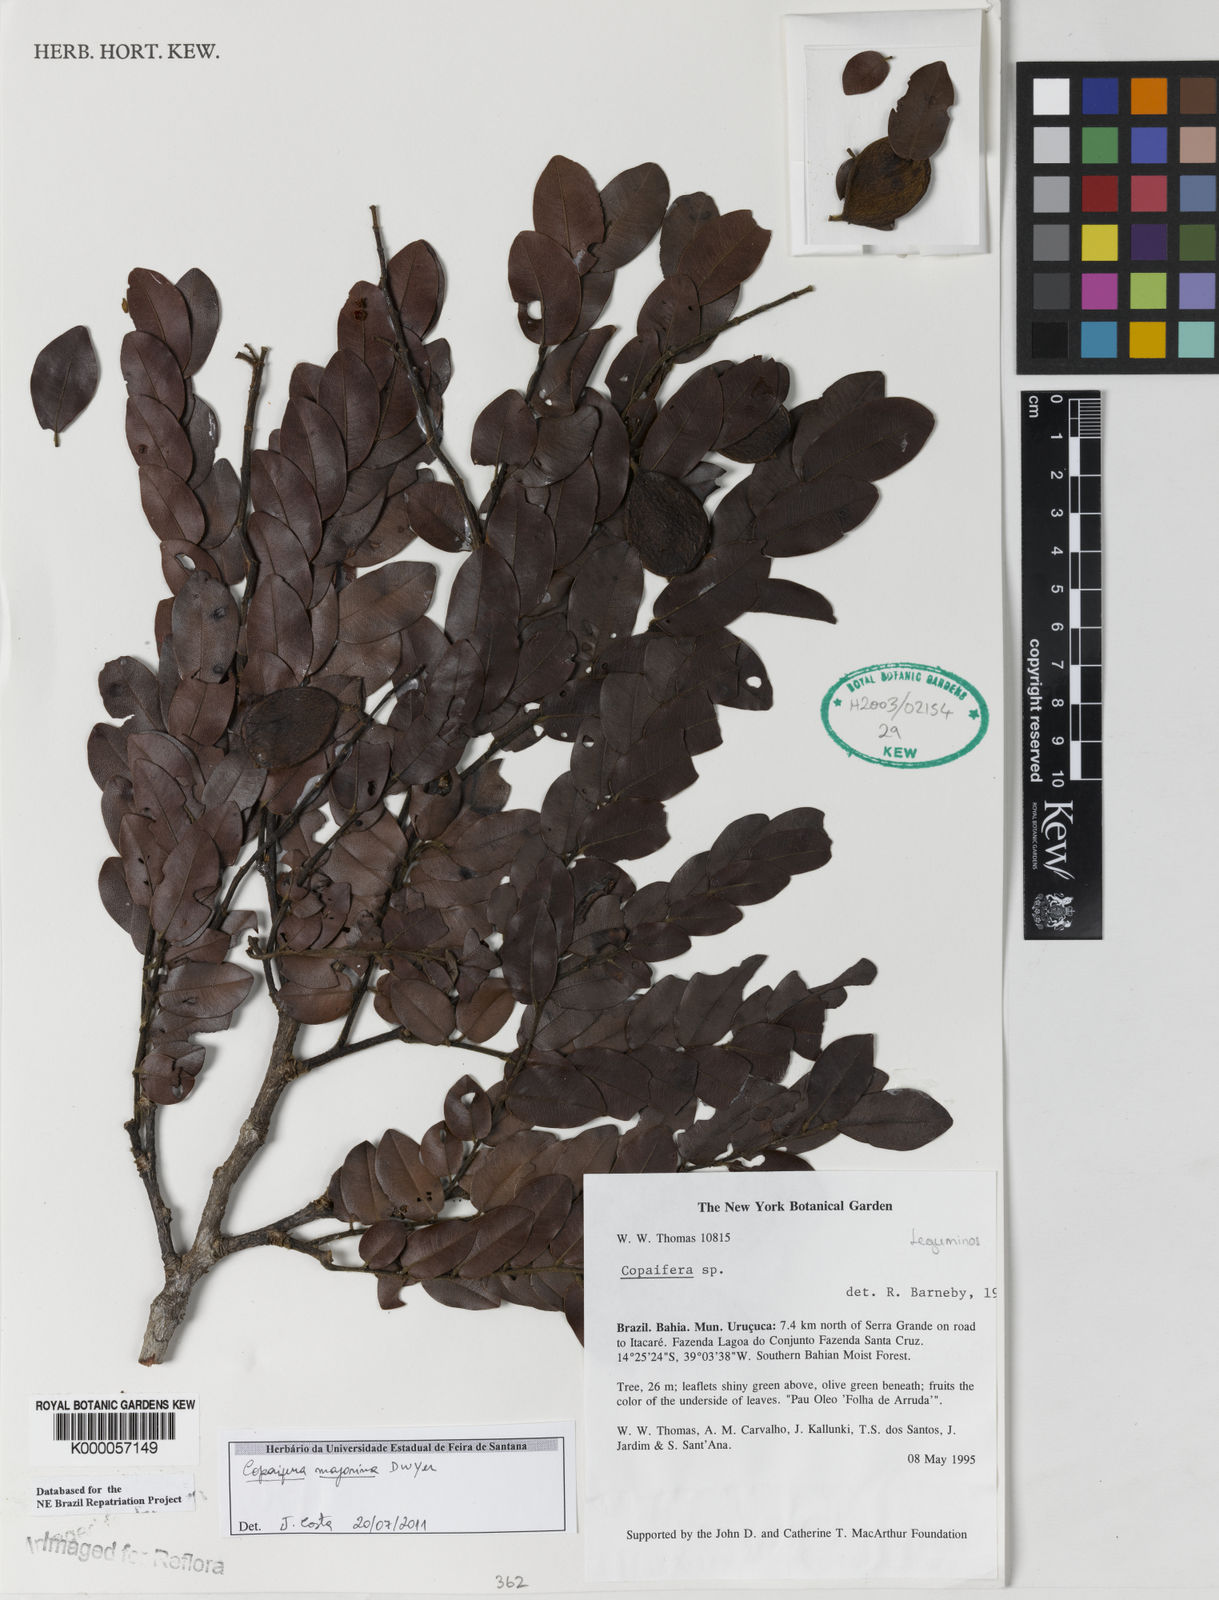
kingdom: Plantae
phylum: Tracheophyta
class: Magnoliopsida
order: Fabales
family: Fabaceae
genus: Copaifera
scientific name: Copaifera majorina
